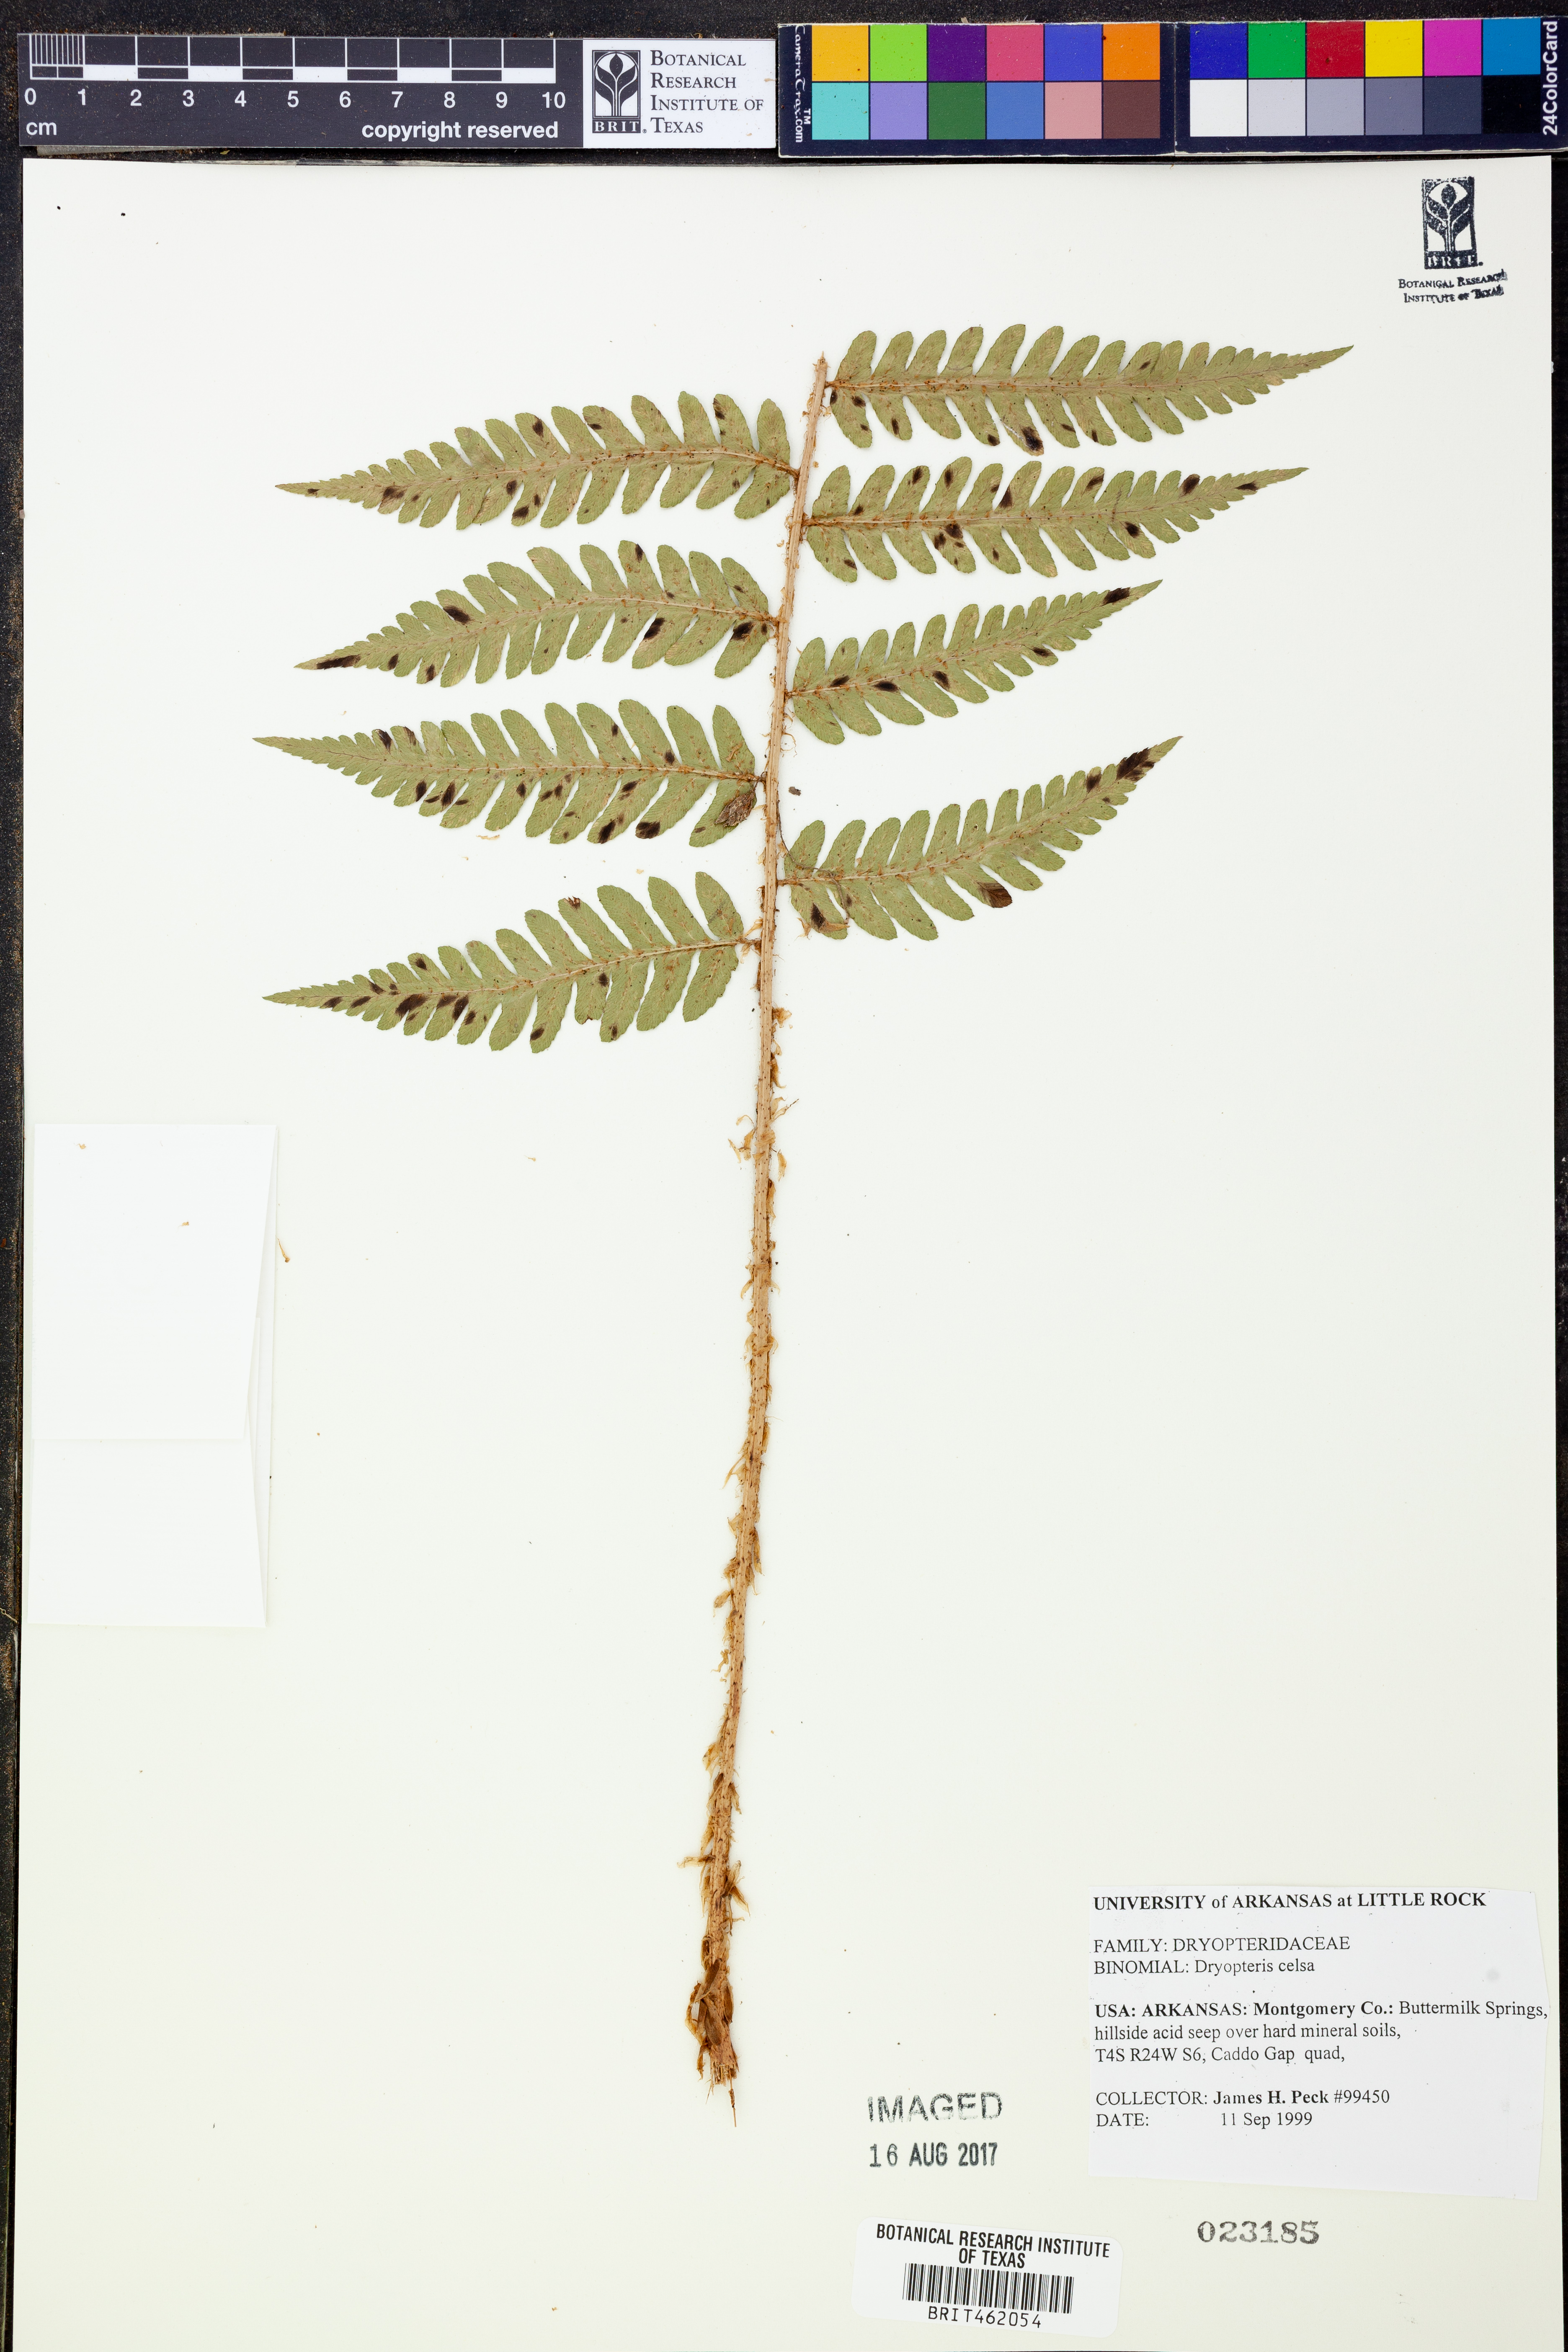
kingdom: Plantae
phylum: Tracheophyta
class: Polypodiopsida
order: Polypodiales
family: Dryopteridaceae
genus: Dryopteris
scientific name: Dryopteris celsa
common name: Log fern
